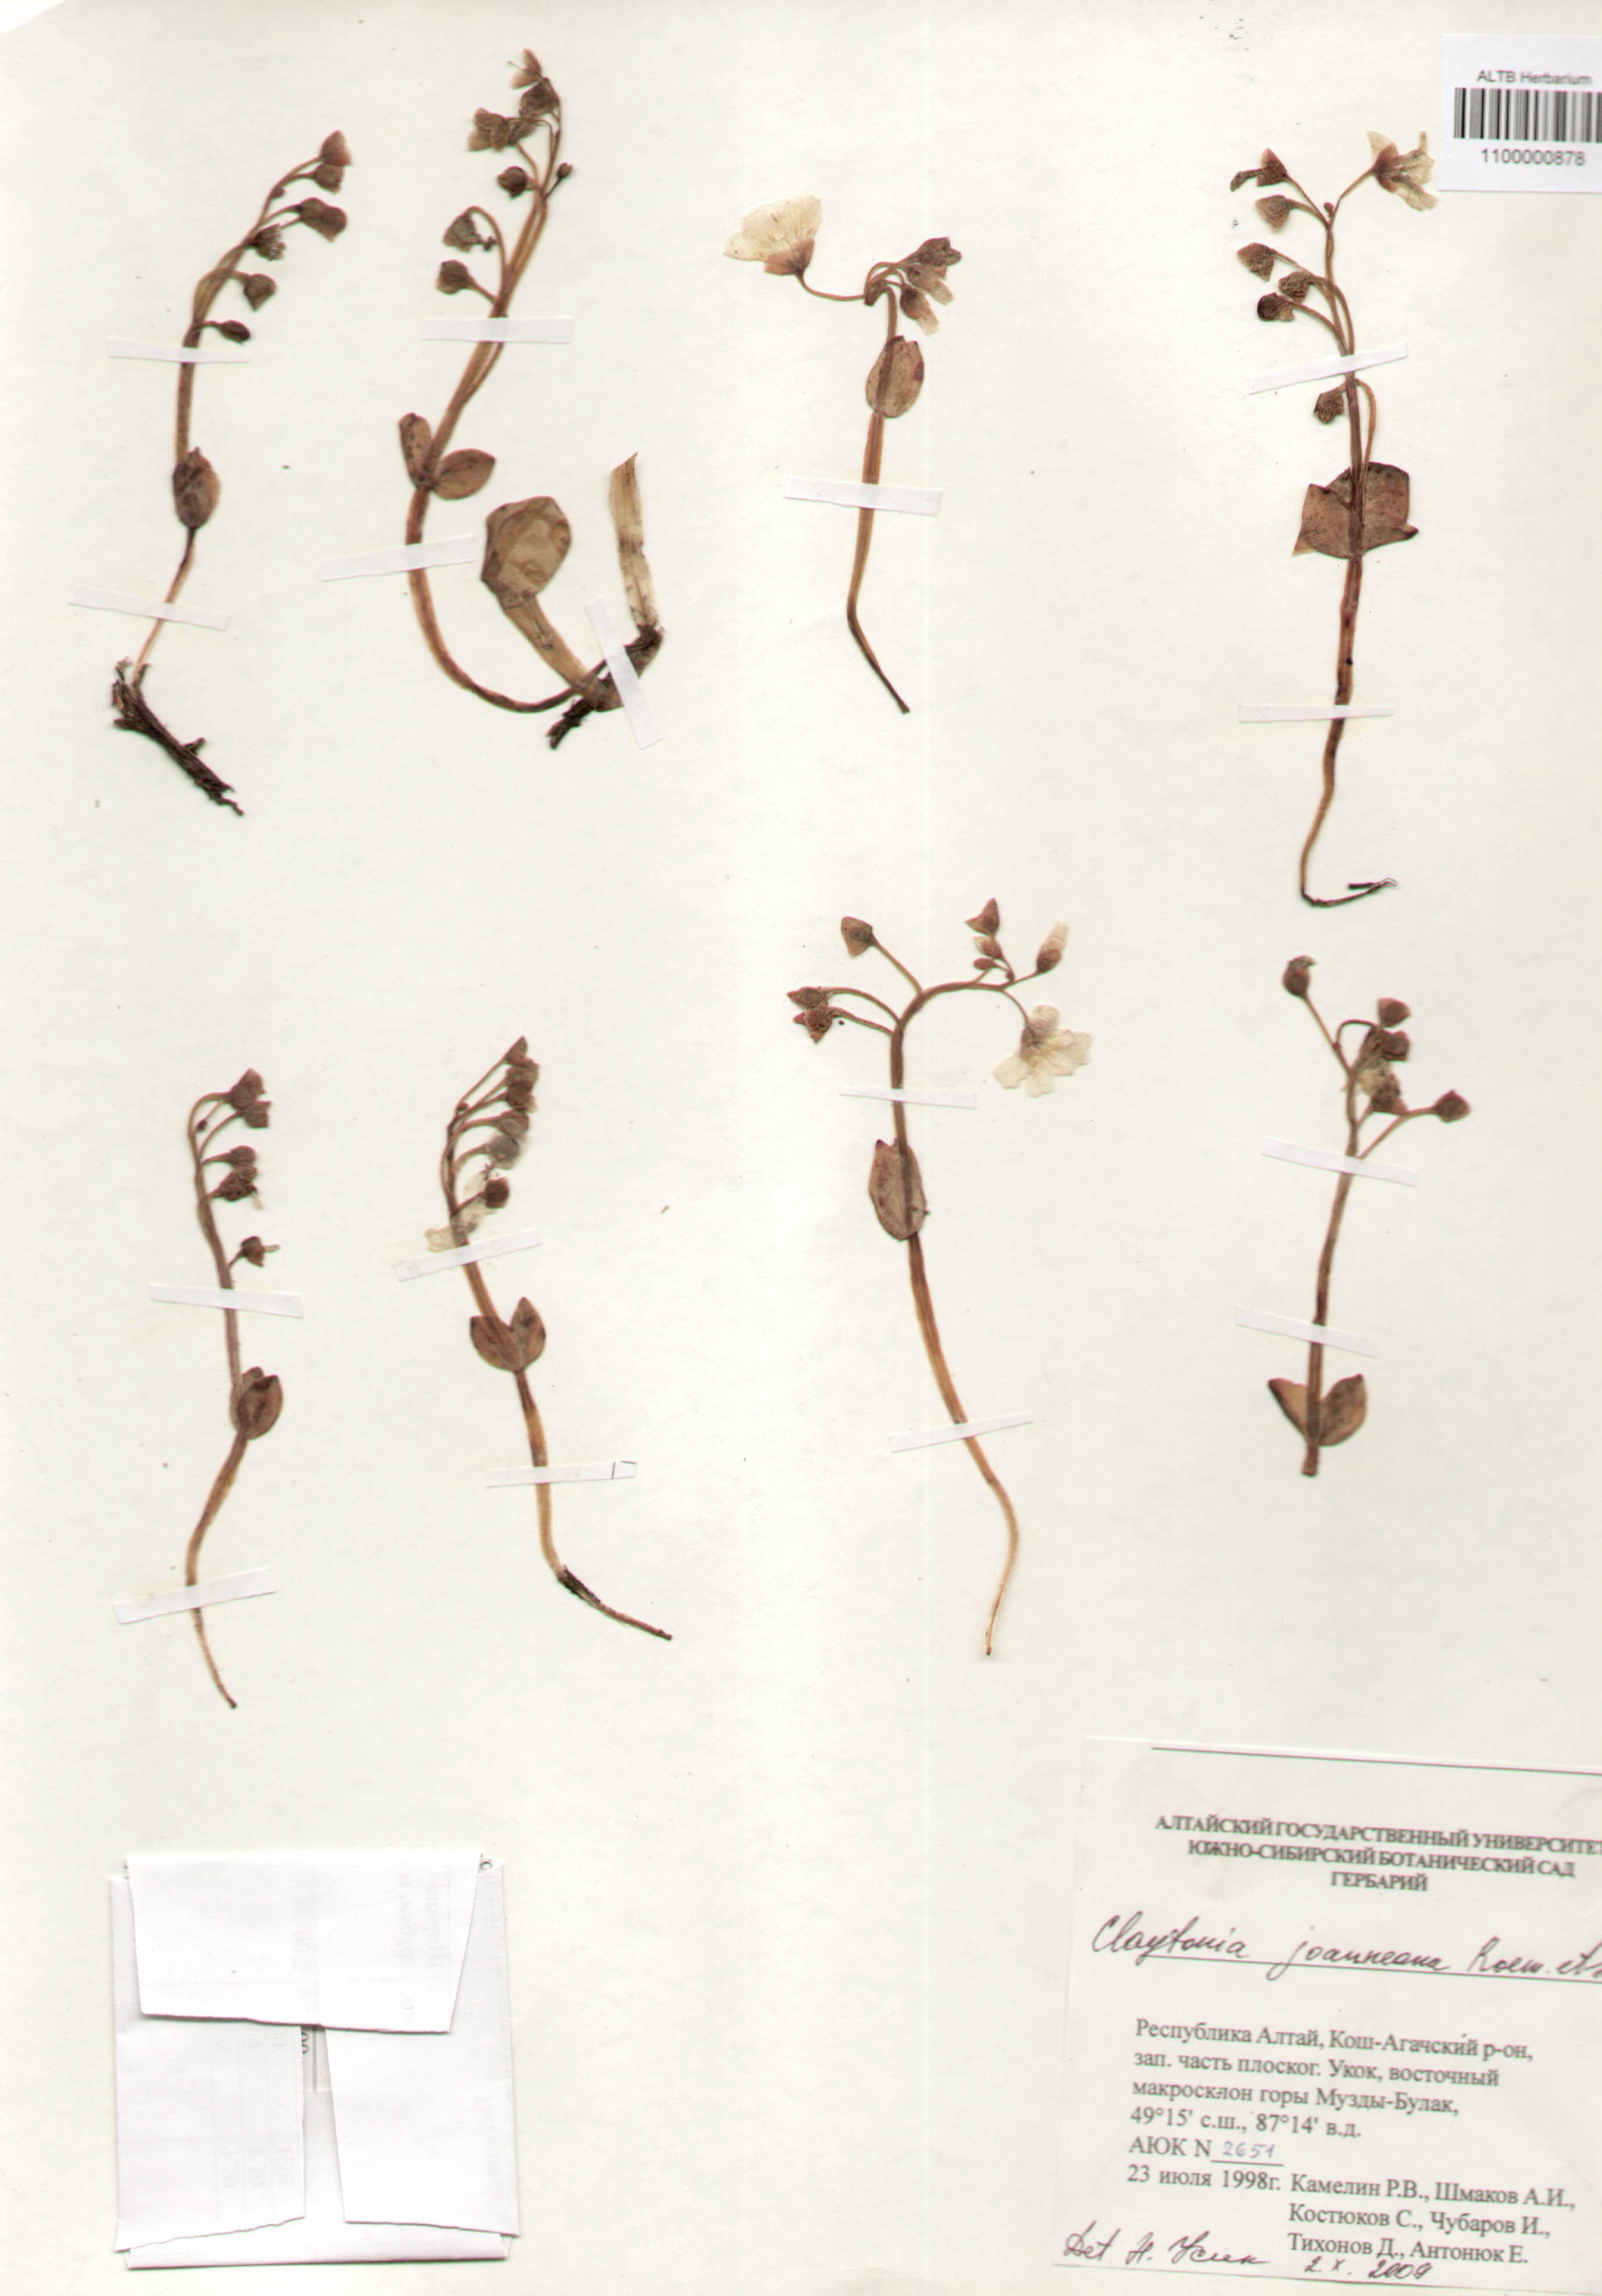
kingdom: Plantae
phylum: Tracheophyta
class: Magnoliopsida
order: Caryophyllales
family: Montiaceae
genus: Claytonia
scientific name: Claytonia joanneana
